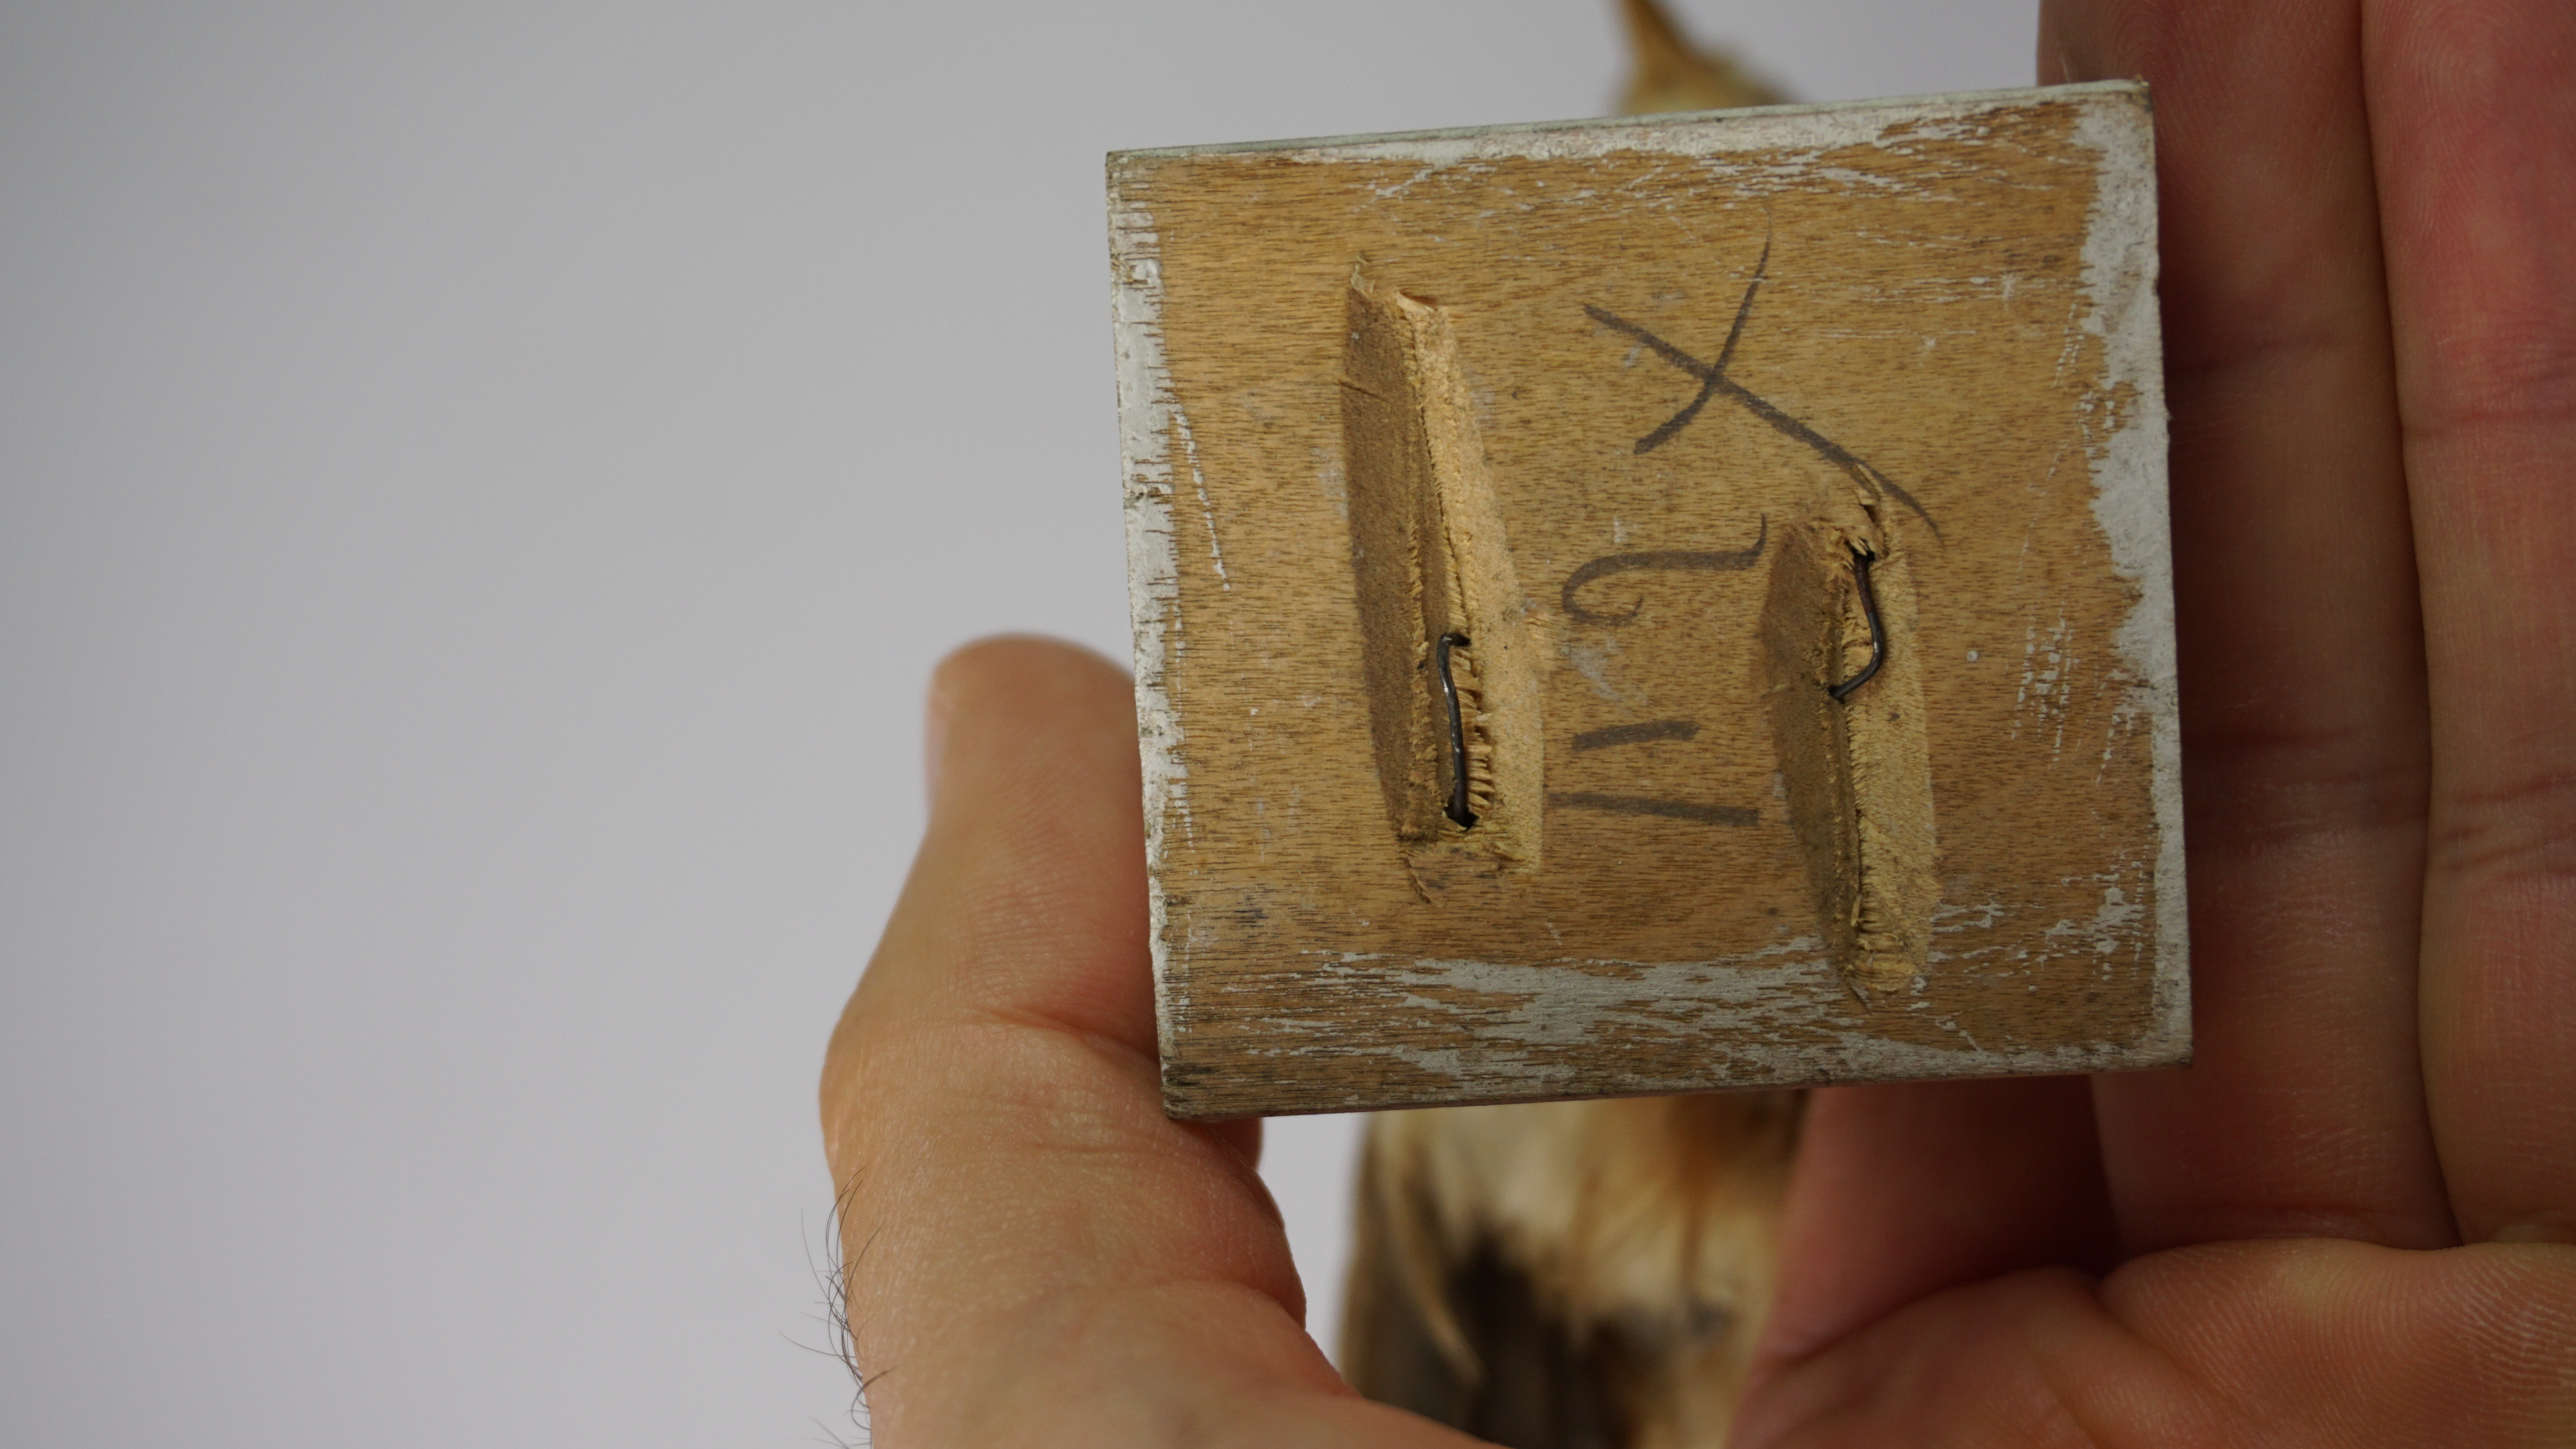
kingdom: Animalia
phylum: Chordata
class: Aves
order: Passeriformes
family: Alaudidae
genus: Mirafra
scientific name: Mirafra erythrocephala
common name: Indochinese bushlark
